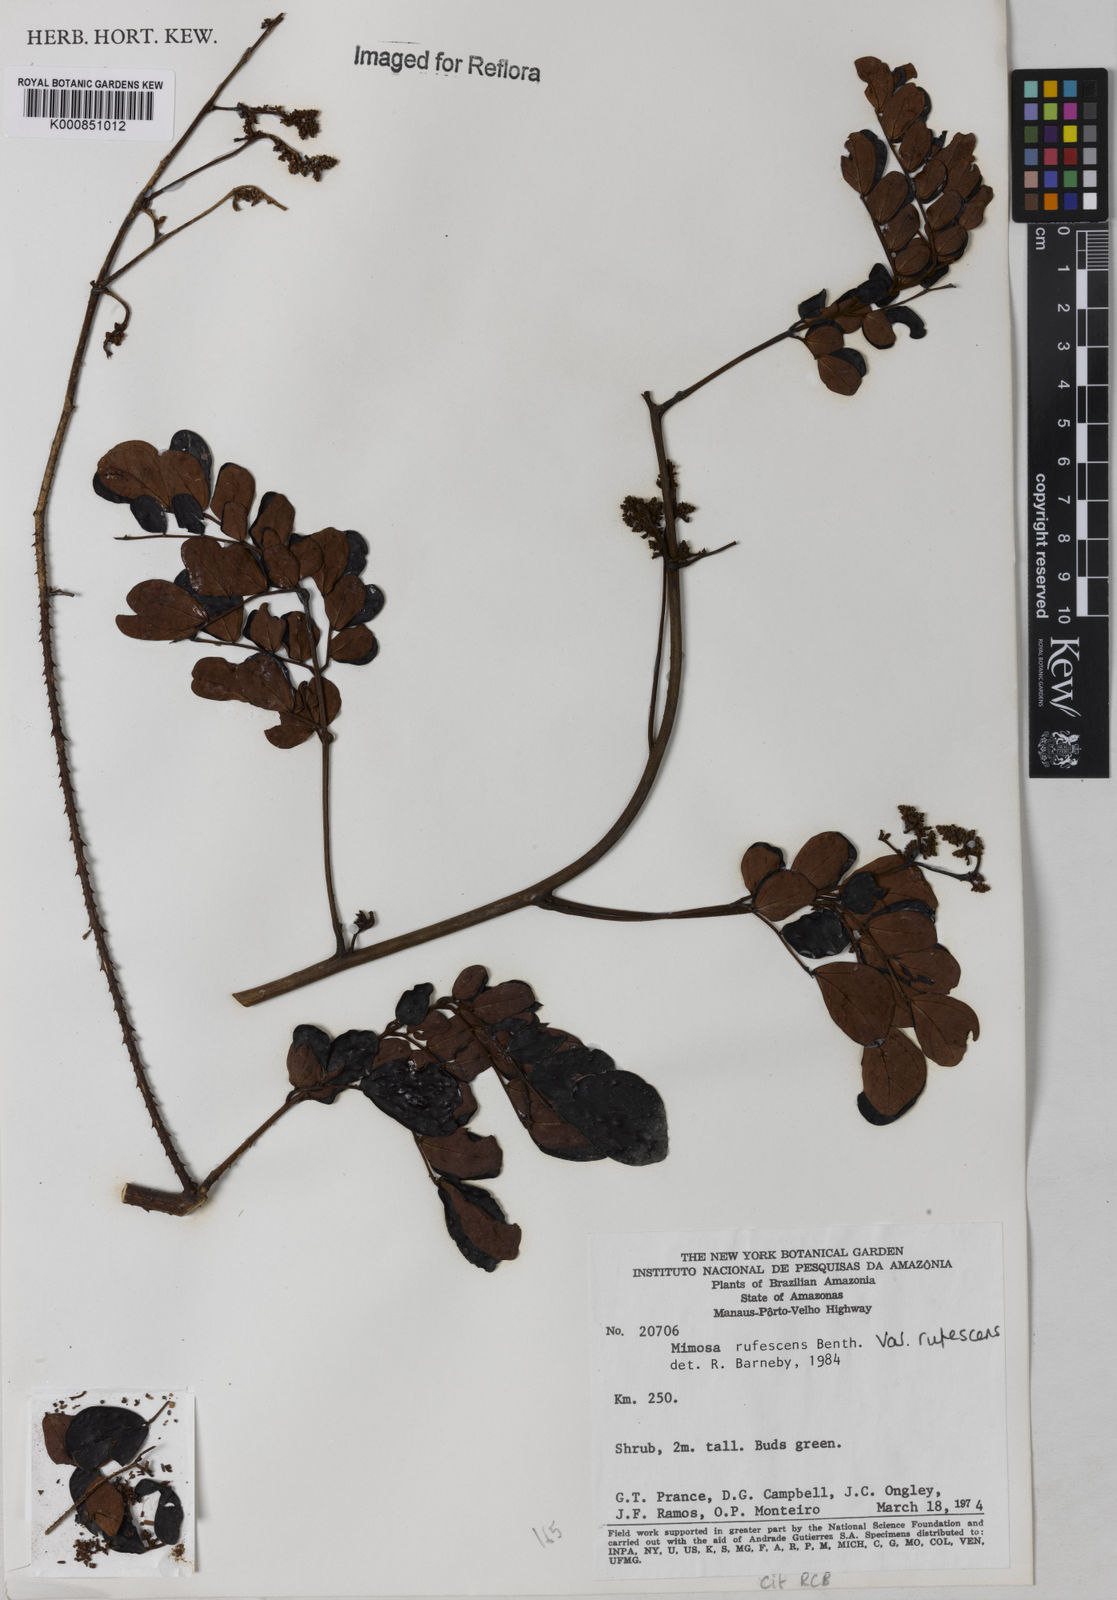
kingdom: Plantae
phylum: Tracheophyta
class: Magnoliopsida
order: Fabales
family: Fabaceae
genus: Mimosa
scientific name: Mimosa rufescens
